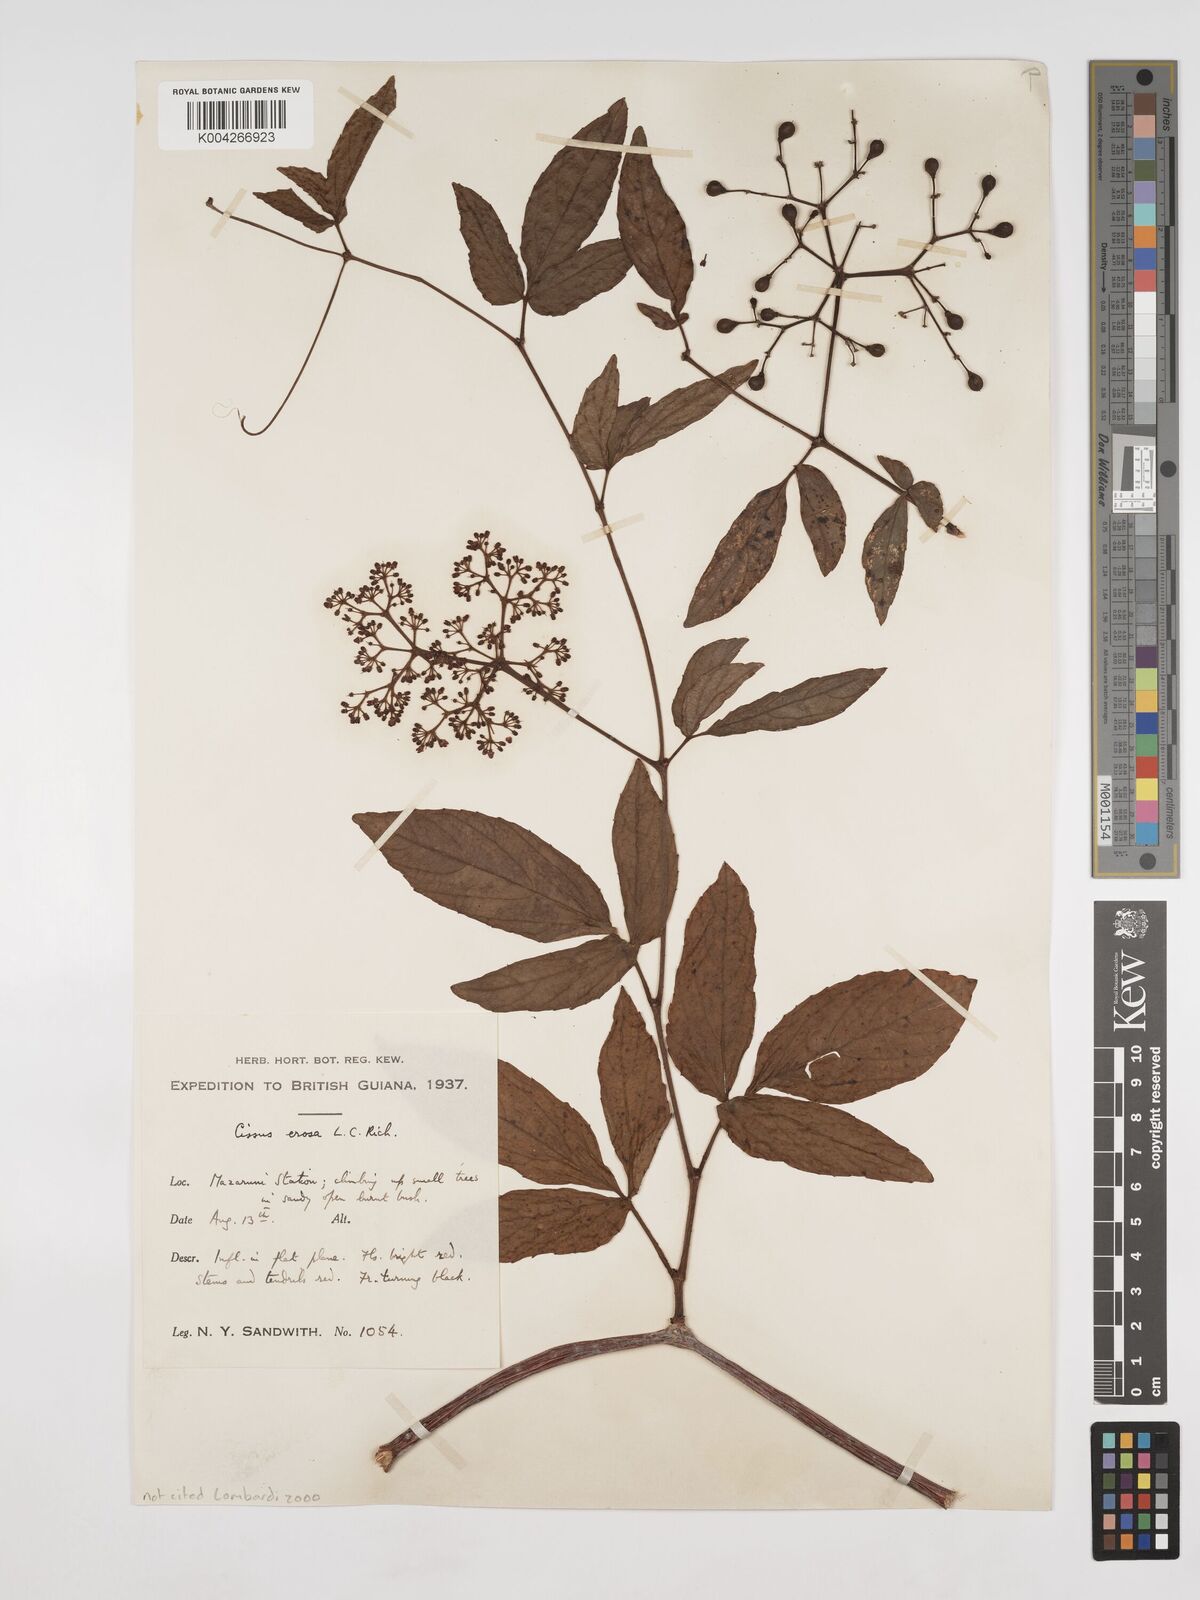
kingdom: Plantae
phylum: Tracheophyta
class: Magnoliopsida
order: Vitales
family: Vitaceae
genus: Cissus
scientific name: Cissus erosa
